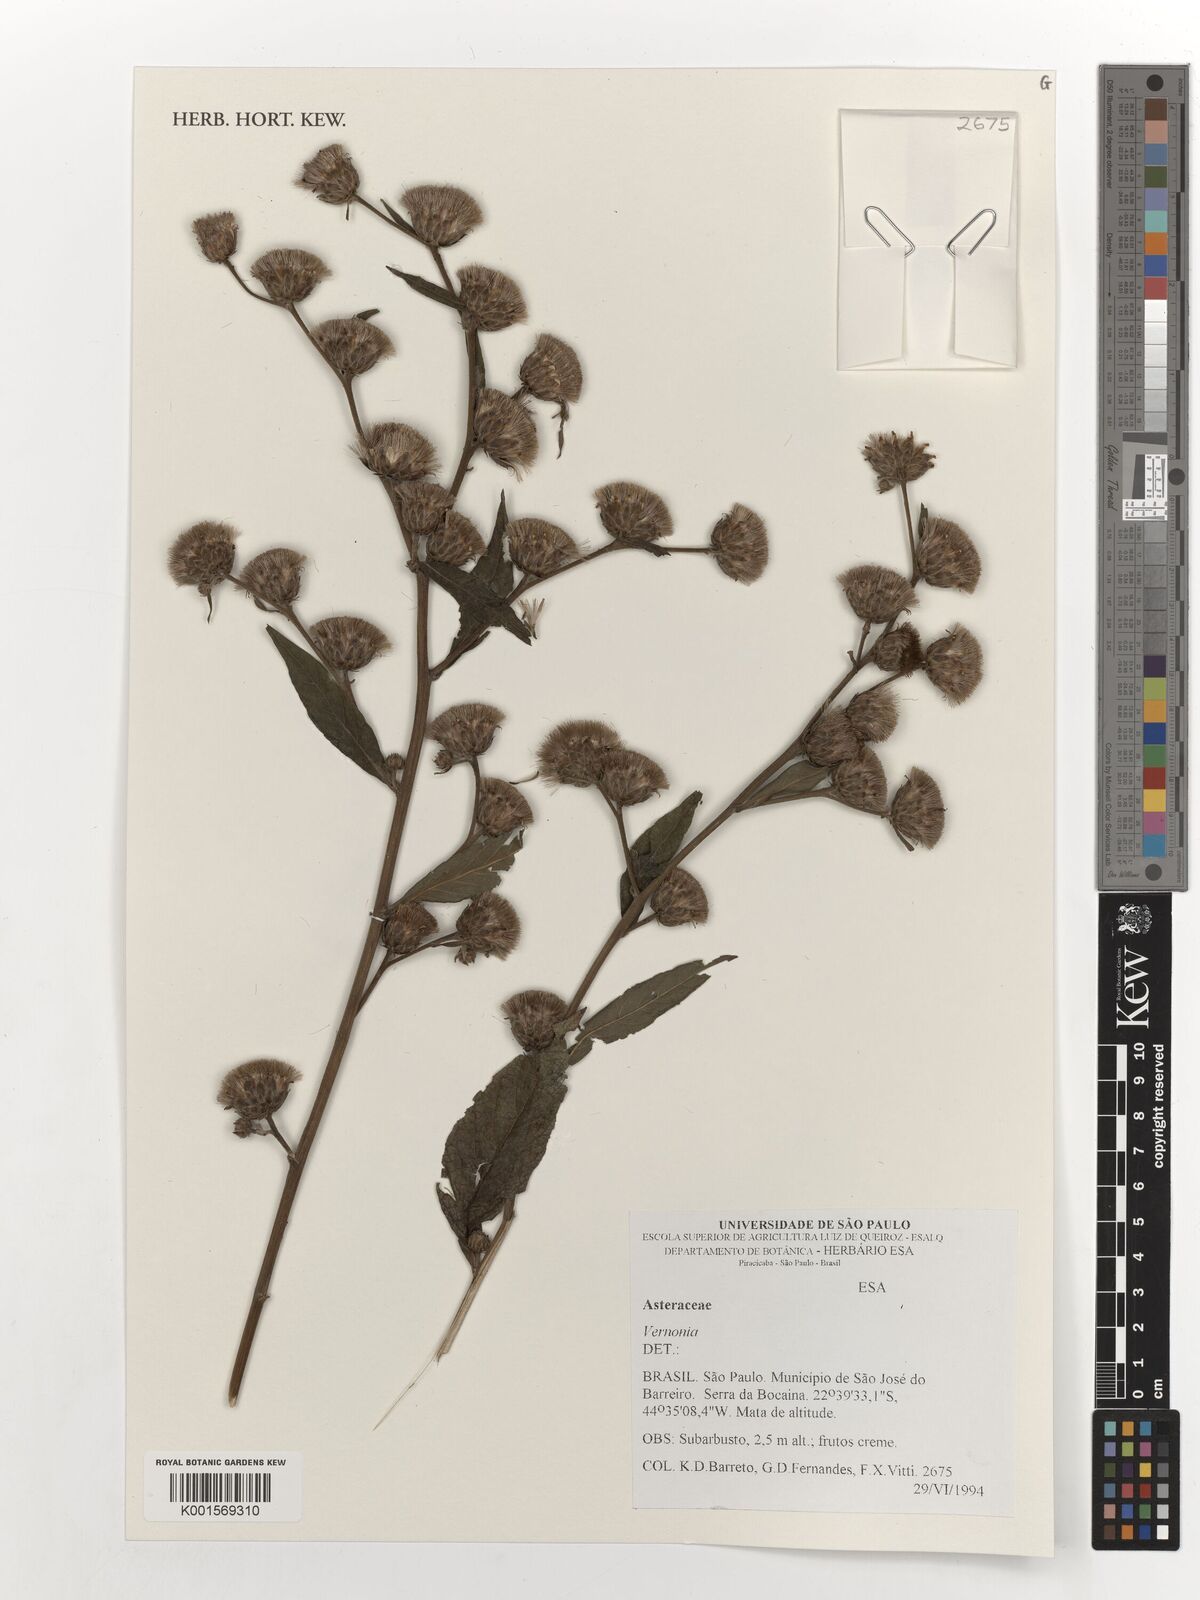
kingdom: Plantae
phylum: Tracheophyta
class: Magnoliopsida
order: Asterales
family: Asteraceae
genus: Vernonia
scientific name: Vernonia
